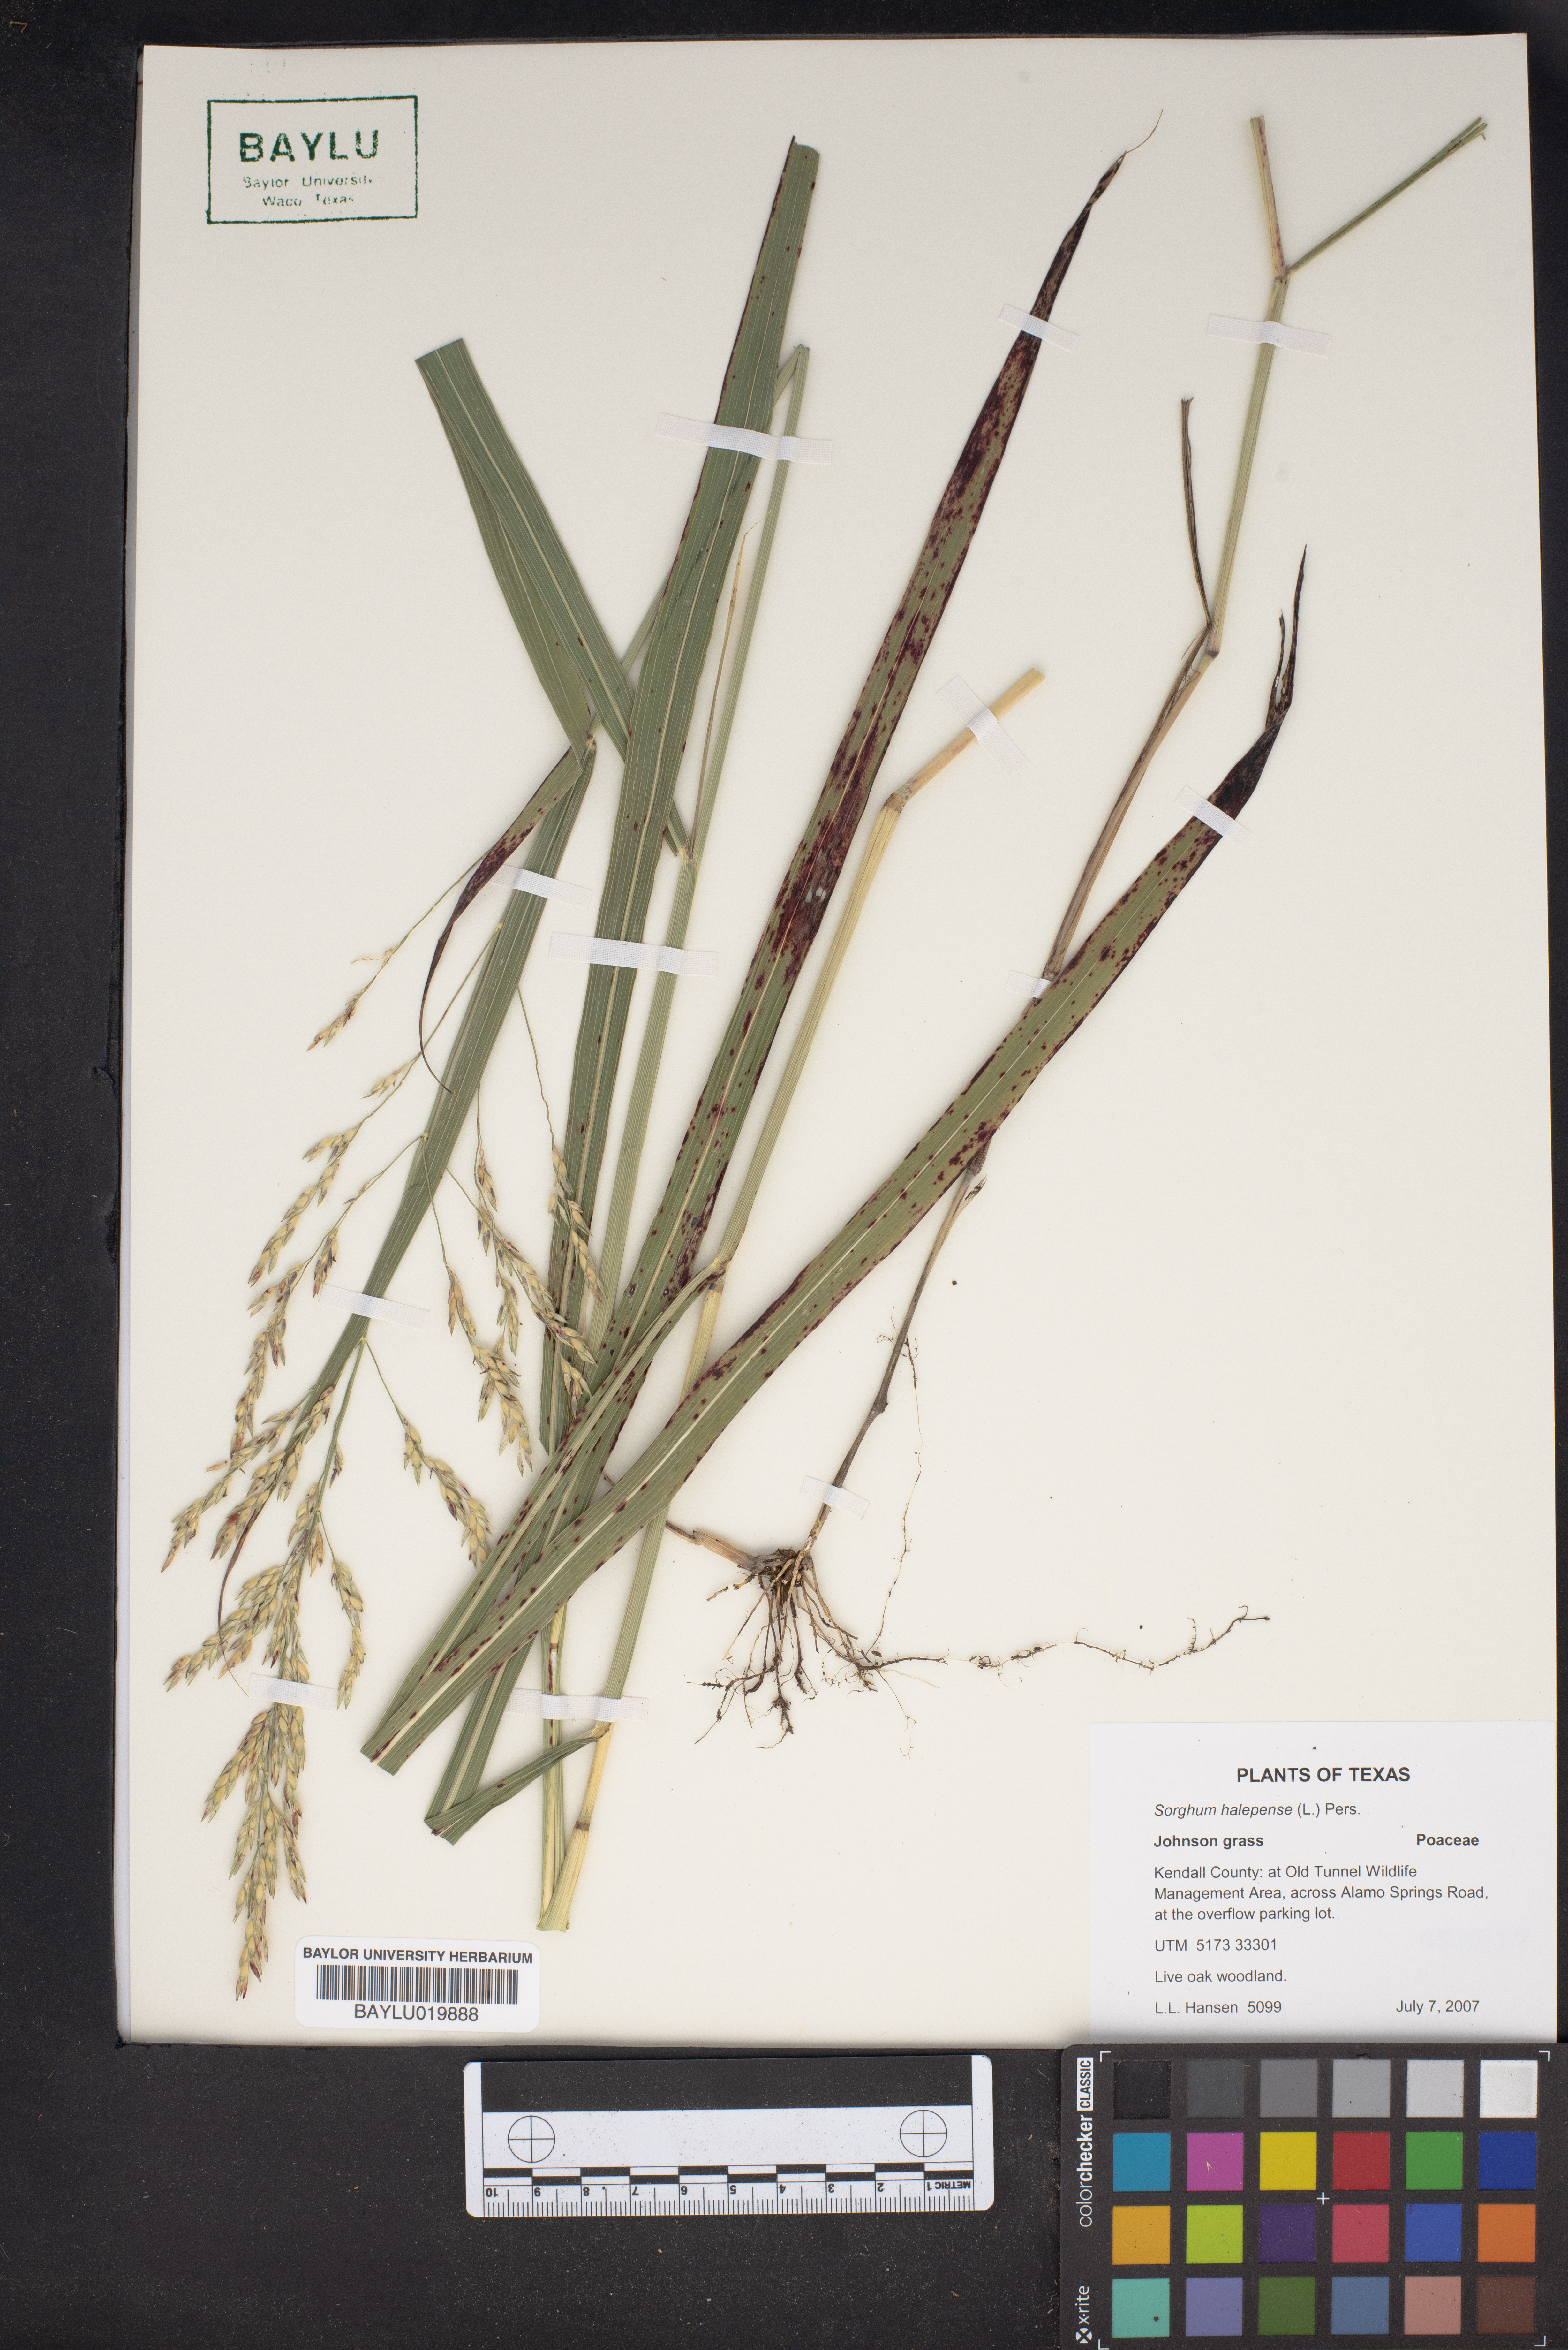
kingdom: Plantae
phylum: Tracheophyta
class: Liliopsida
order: Poales
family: Poaceae
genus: Sorghum
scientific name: Sorghum halepense
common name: Johnson-grass
